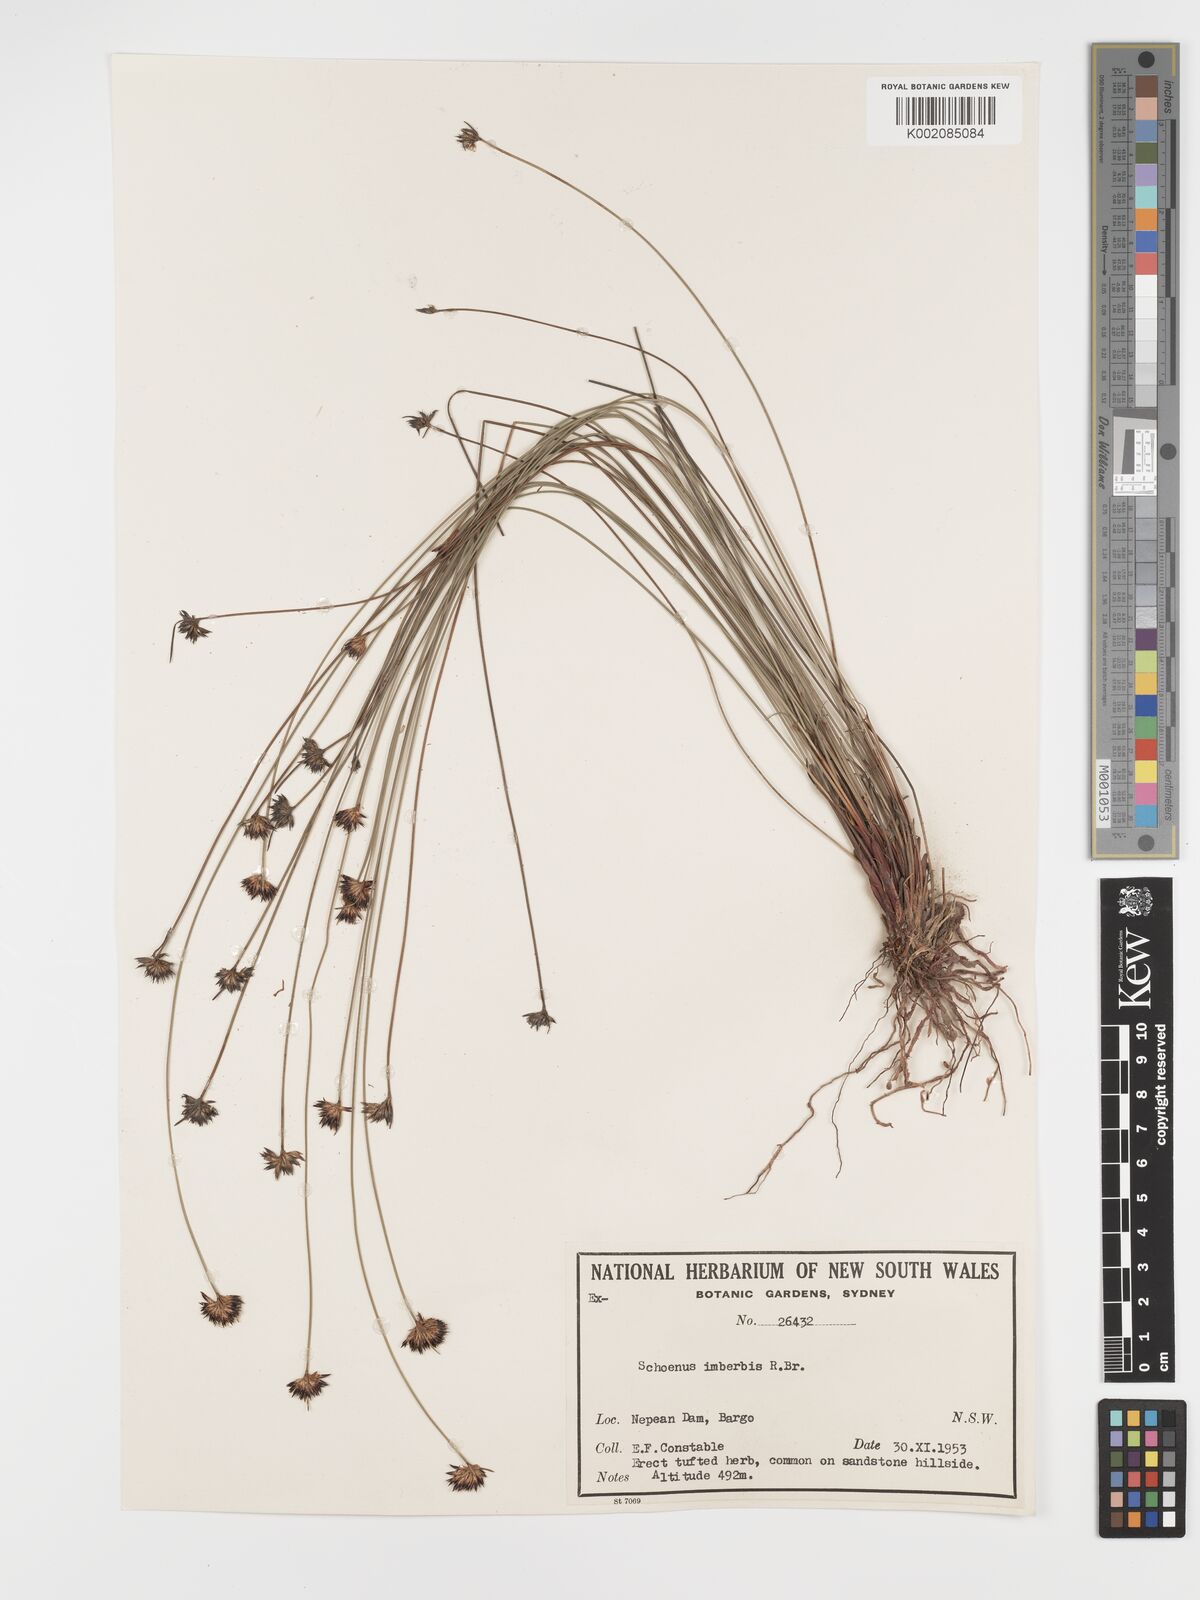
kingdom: Plantae
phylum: Tracheophyta
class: Liliopsida
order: Poales
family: Cyperaceae
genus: Schoenus
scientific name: Schoenus imberbis
